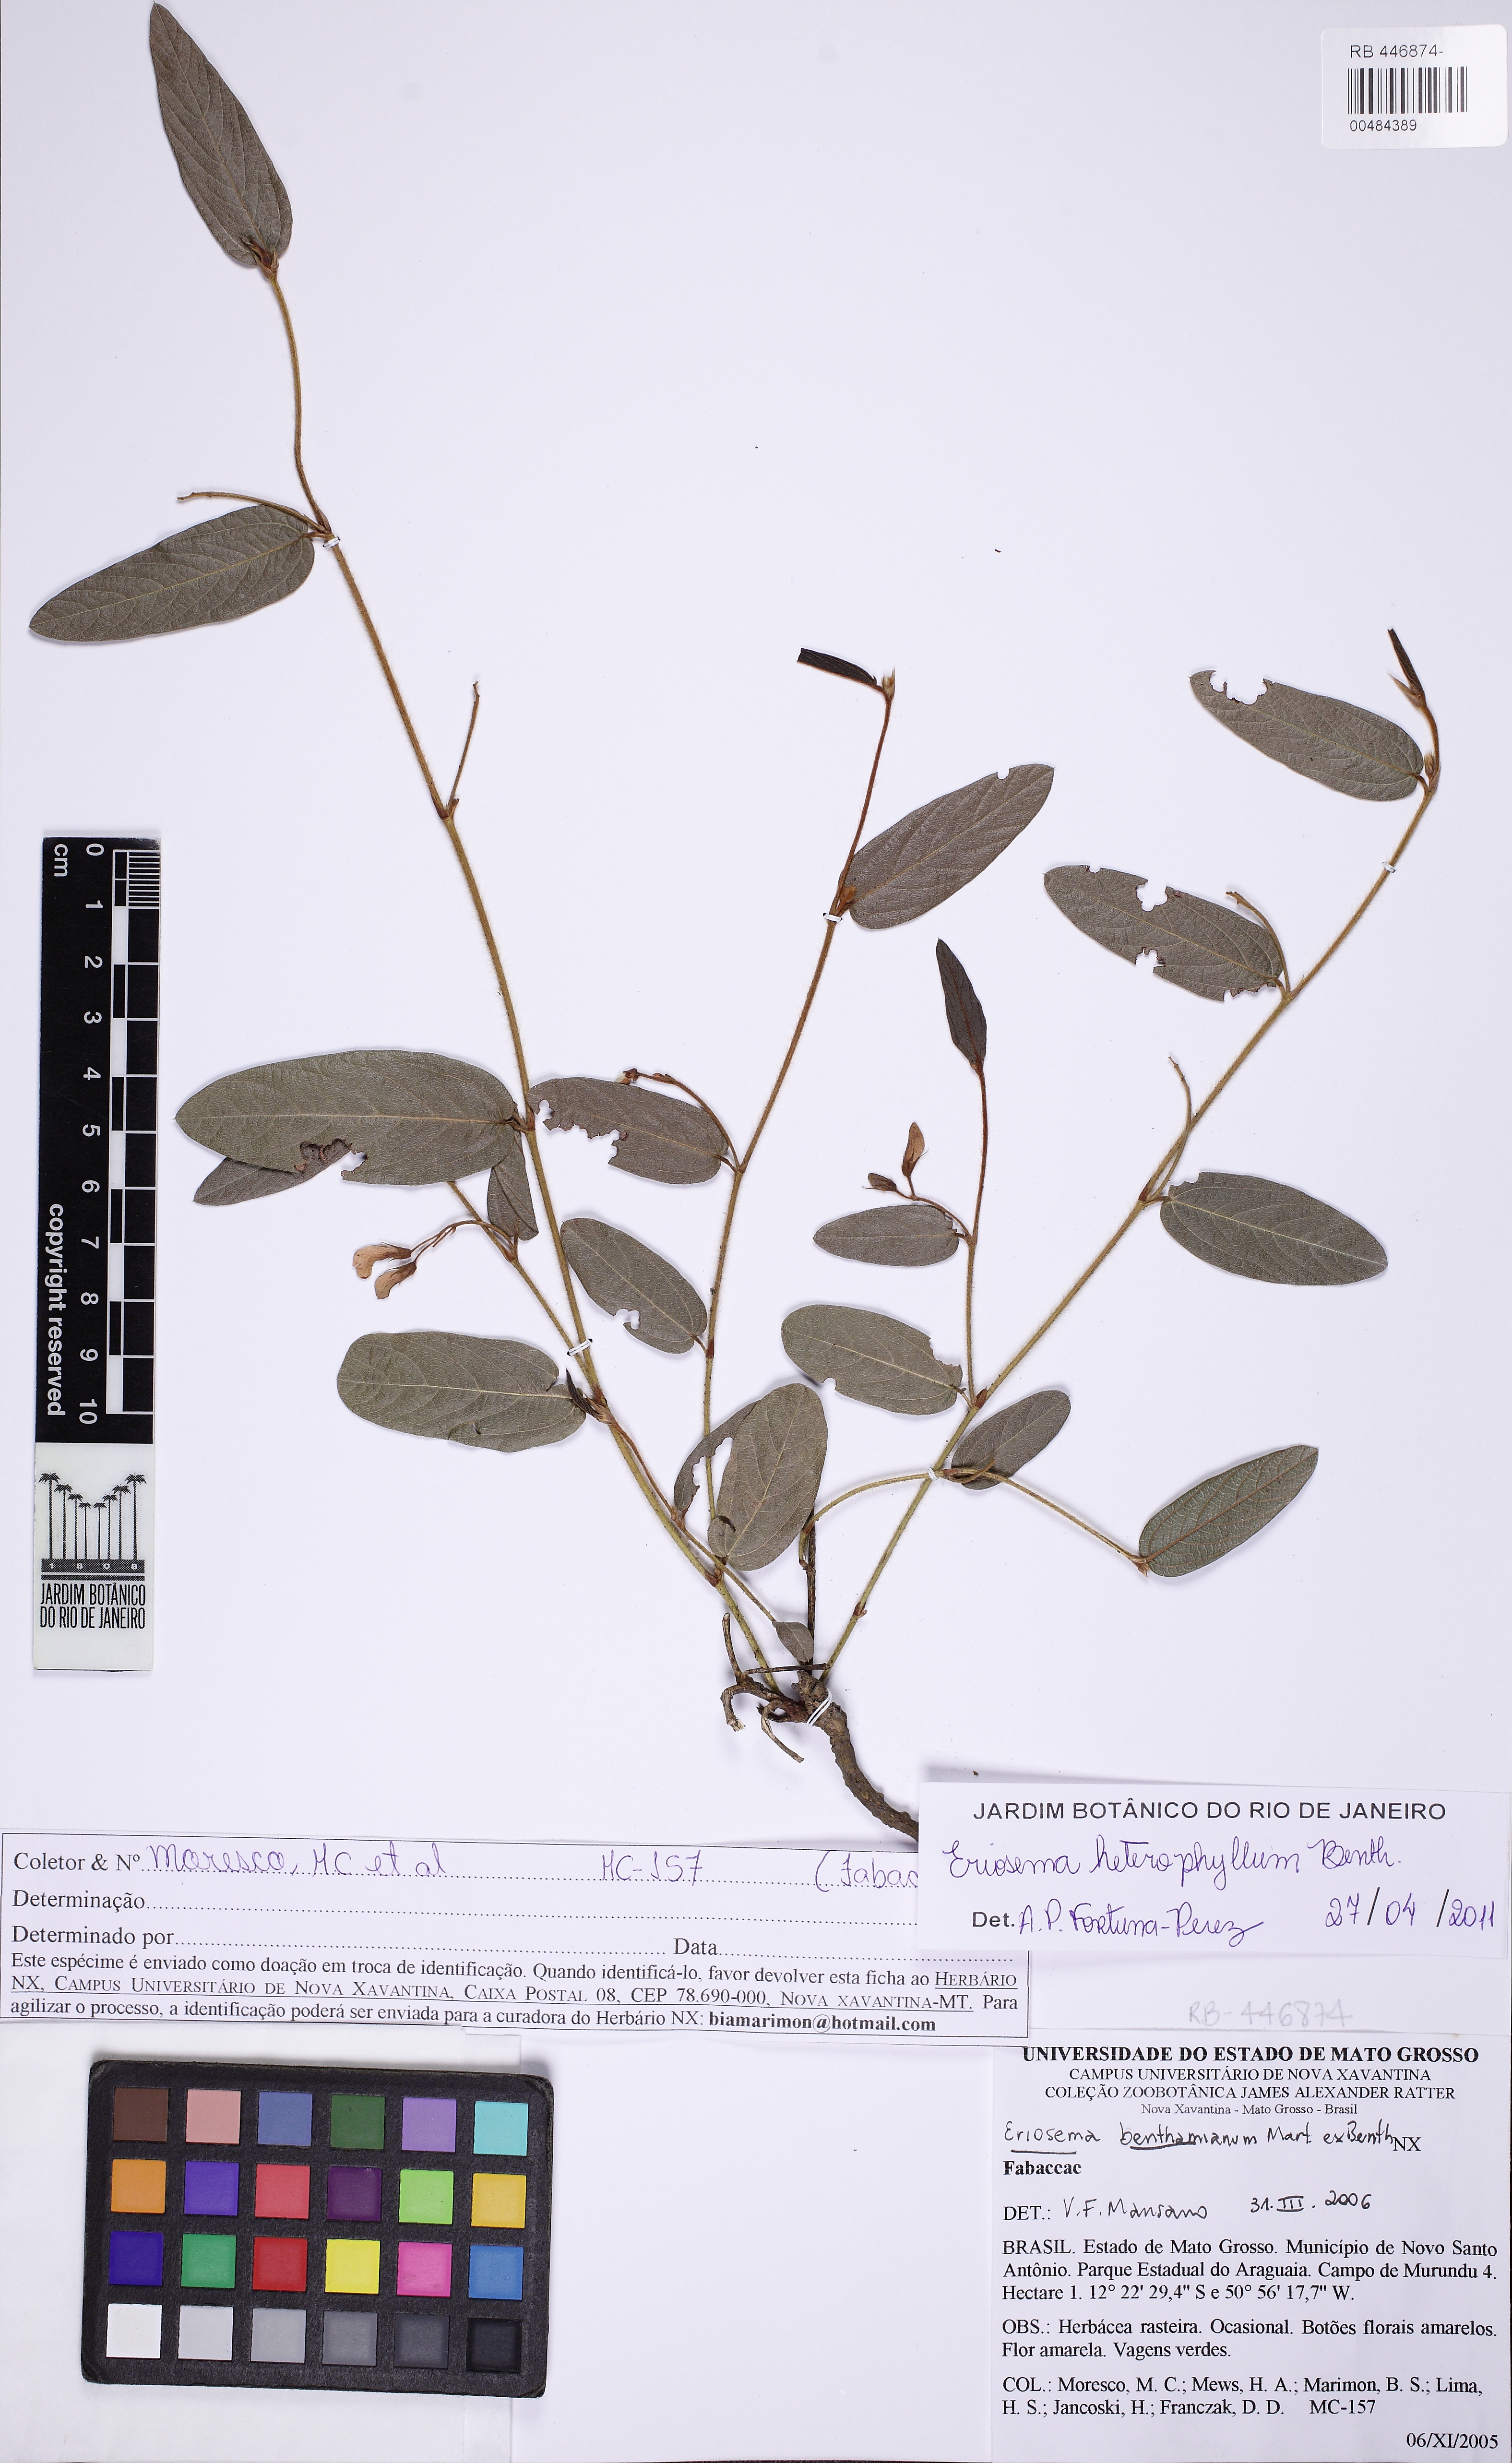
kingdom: Plantae
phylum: Tracheophyta
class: Magnoliopsida
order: Fabales
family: Fabaceae
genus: Eriosema
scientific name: Eriosema heterophyllum
